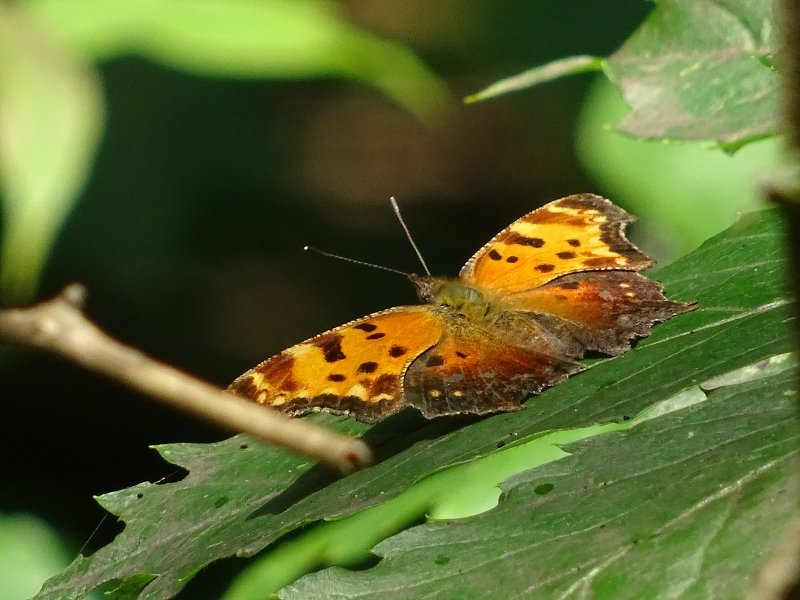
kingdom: Animalia
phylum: Arthropoda
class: Insecta
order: Lepidoptera
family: Nymphalidae
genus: Polygonia
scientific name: Polygonia progne
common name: Gray Comma
